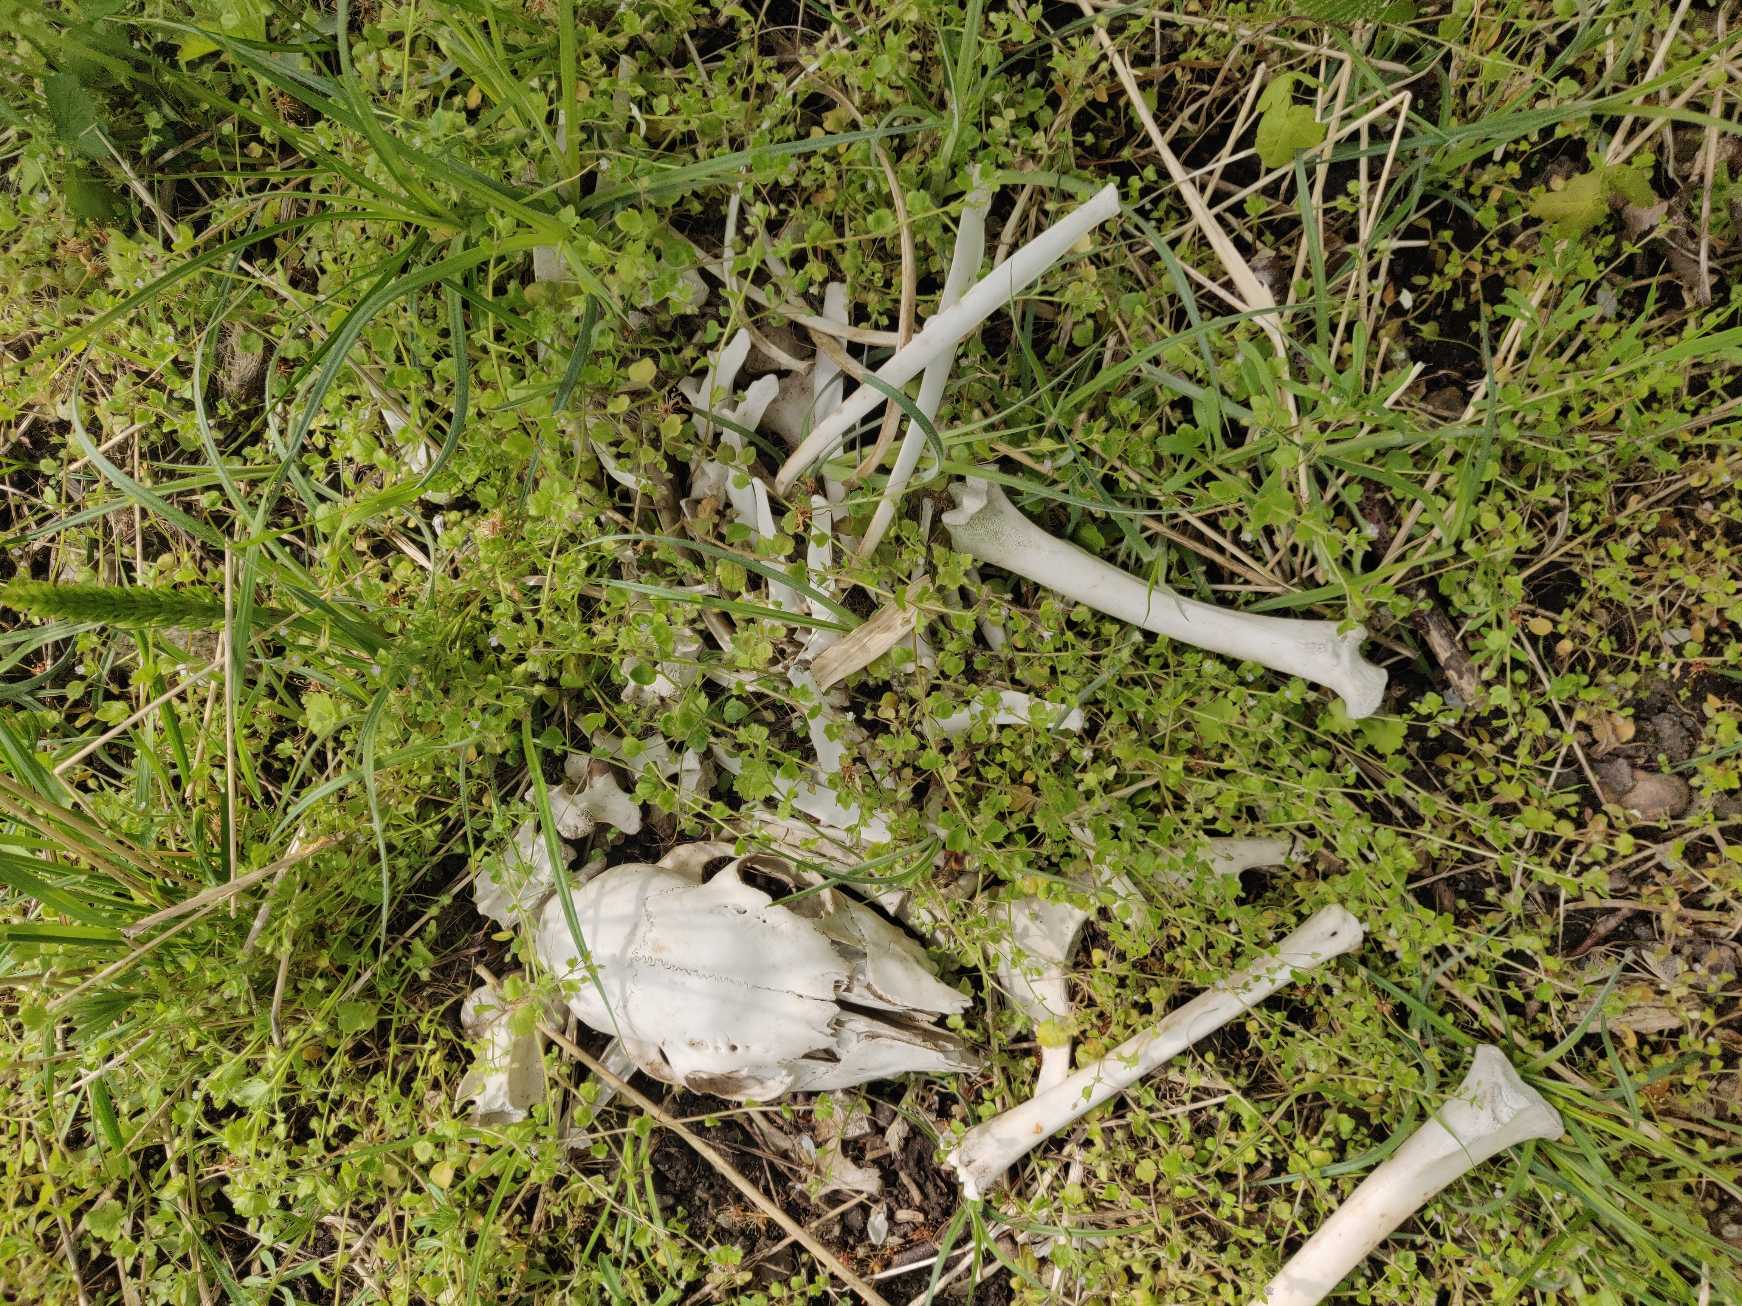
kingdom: Animalia
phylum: Chordata
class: Mammalia
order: Artiodactyla
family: Cervidae
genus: Capreolus
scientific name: Capreolus capreolus
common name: Rådyr
